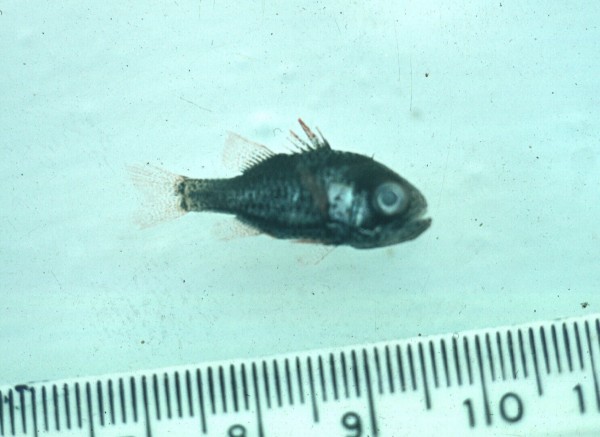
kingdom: Animalia
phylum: Chordata
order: Perciformes
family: Apogonidae
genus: Siphamia
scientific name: Siphamia tubulata
